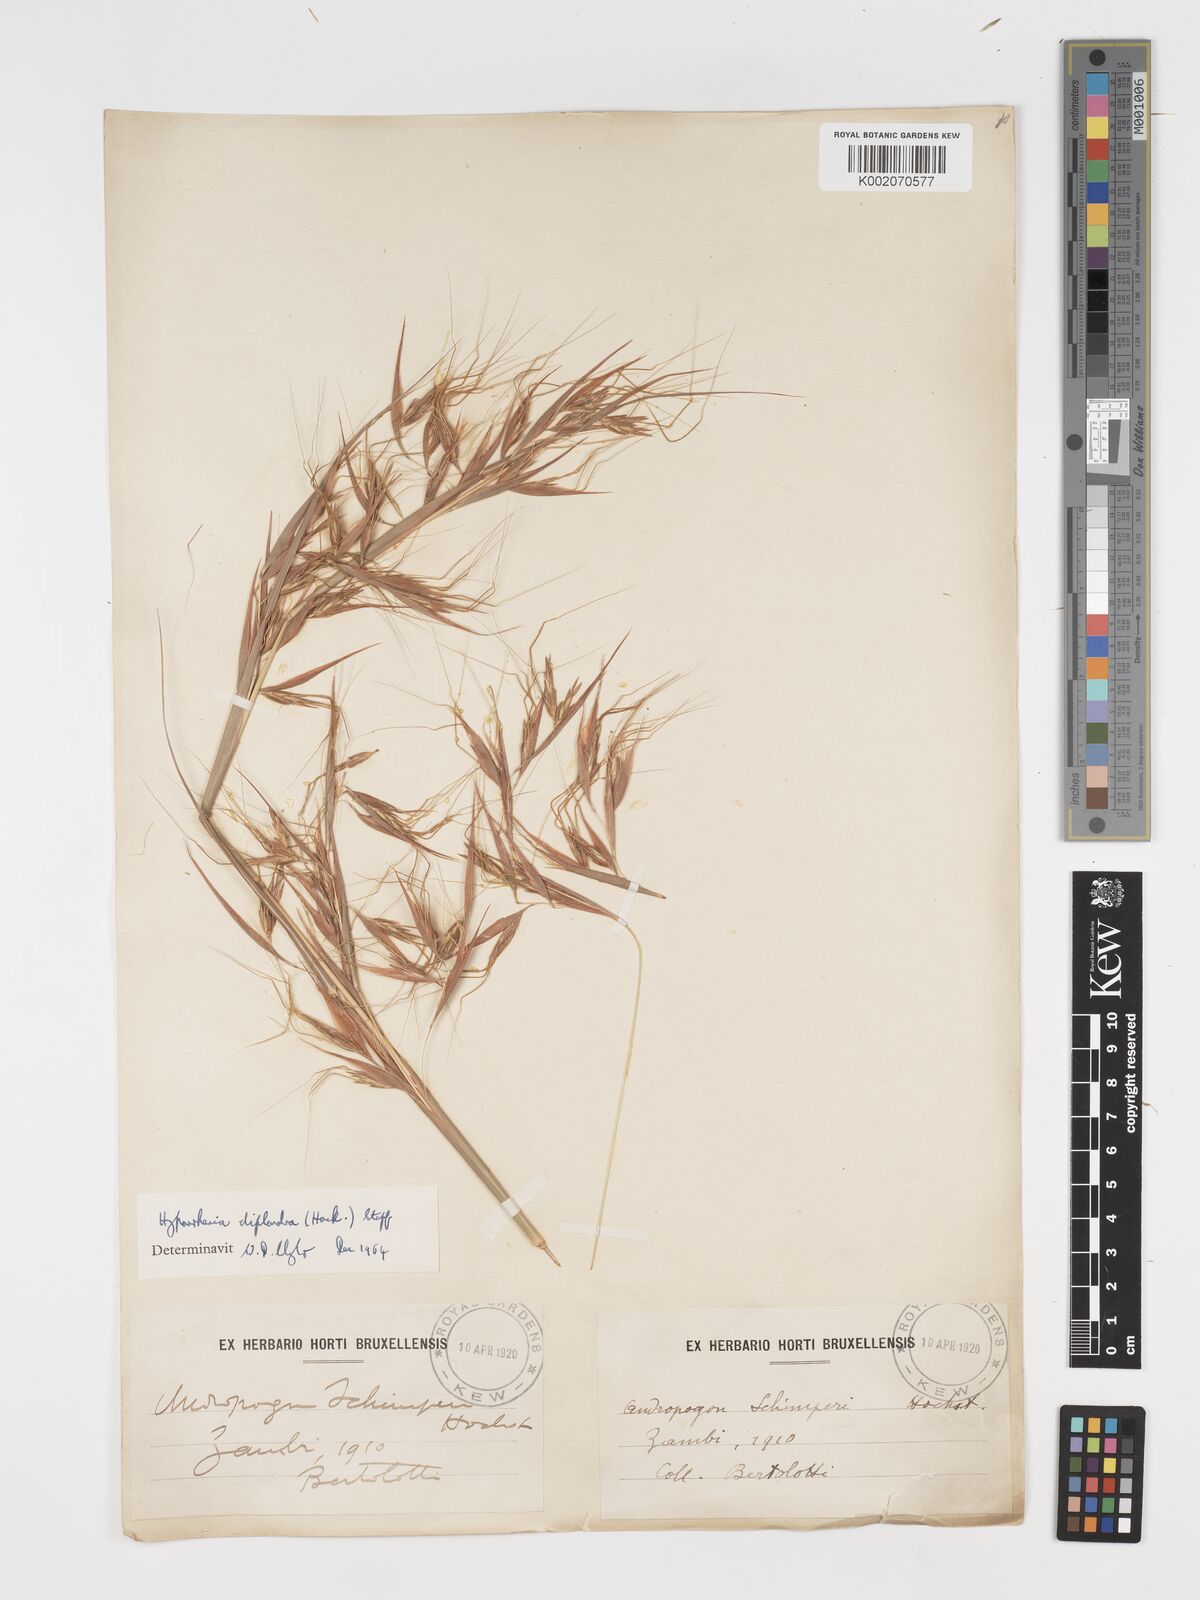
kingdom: Plantae
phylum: Tracheophyta
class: Liliopsida
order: Poales
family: Poaceae
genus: Hyparrhenia
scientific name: Hyparrhenia diplandra
